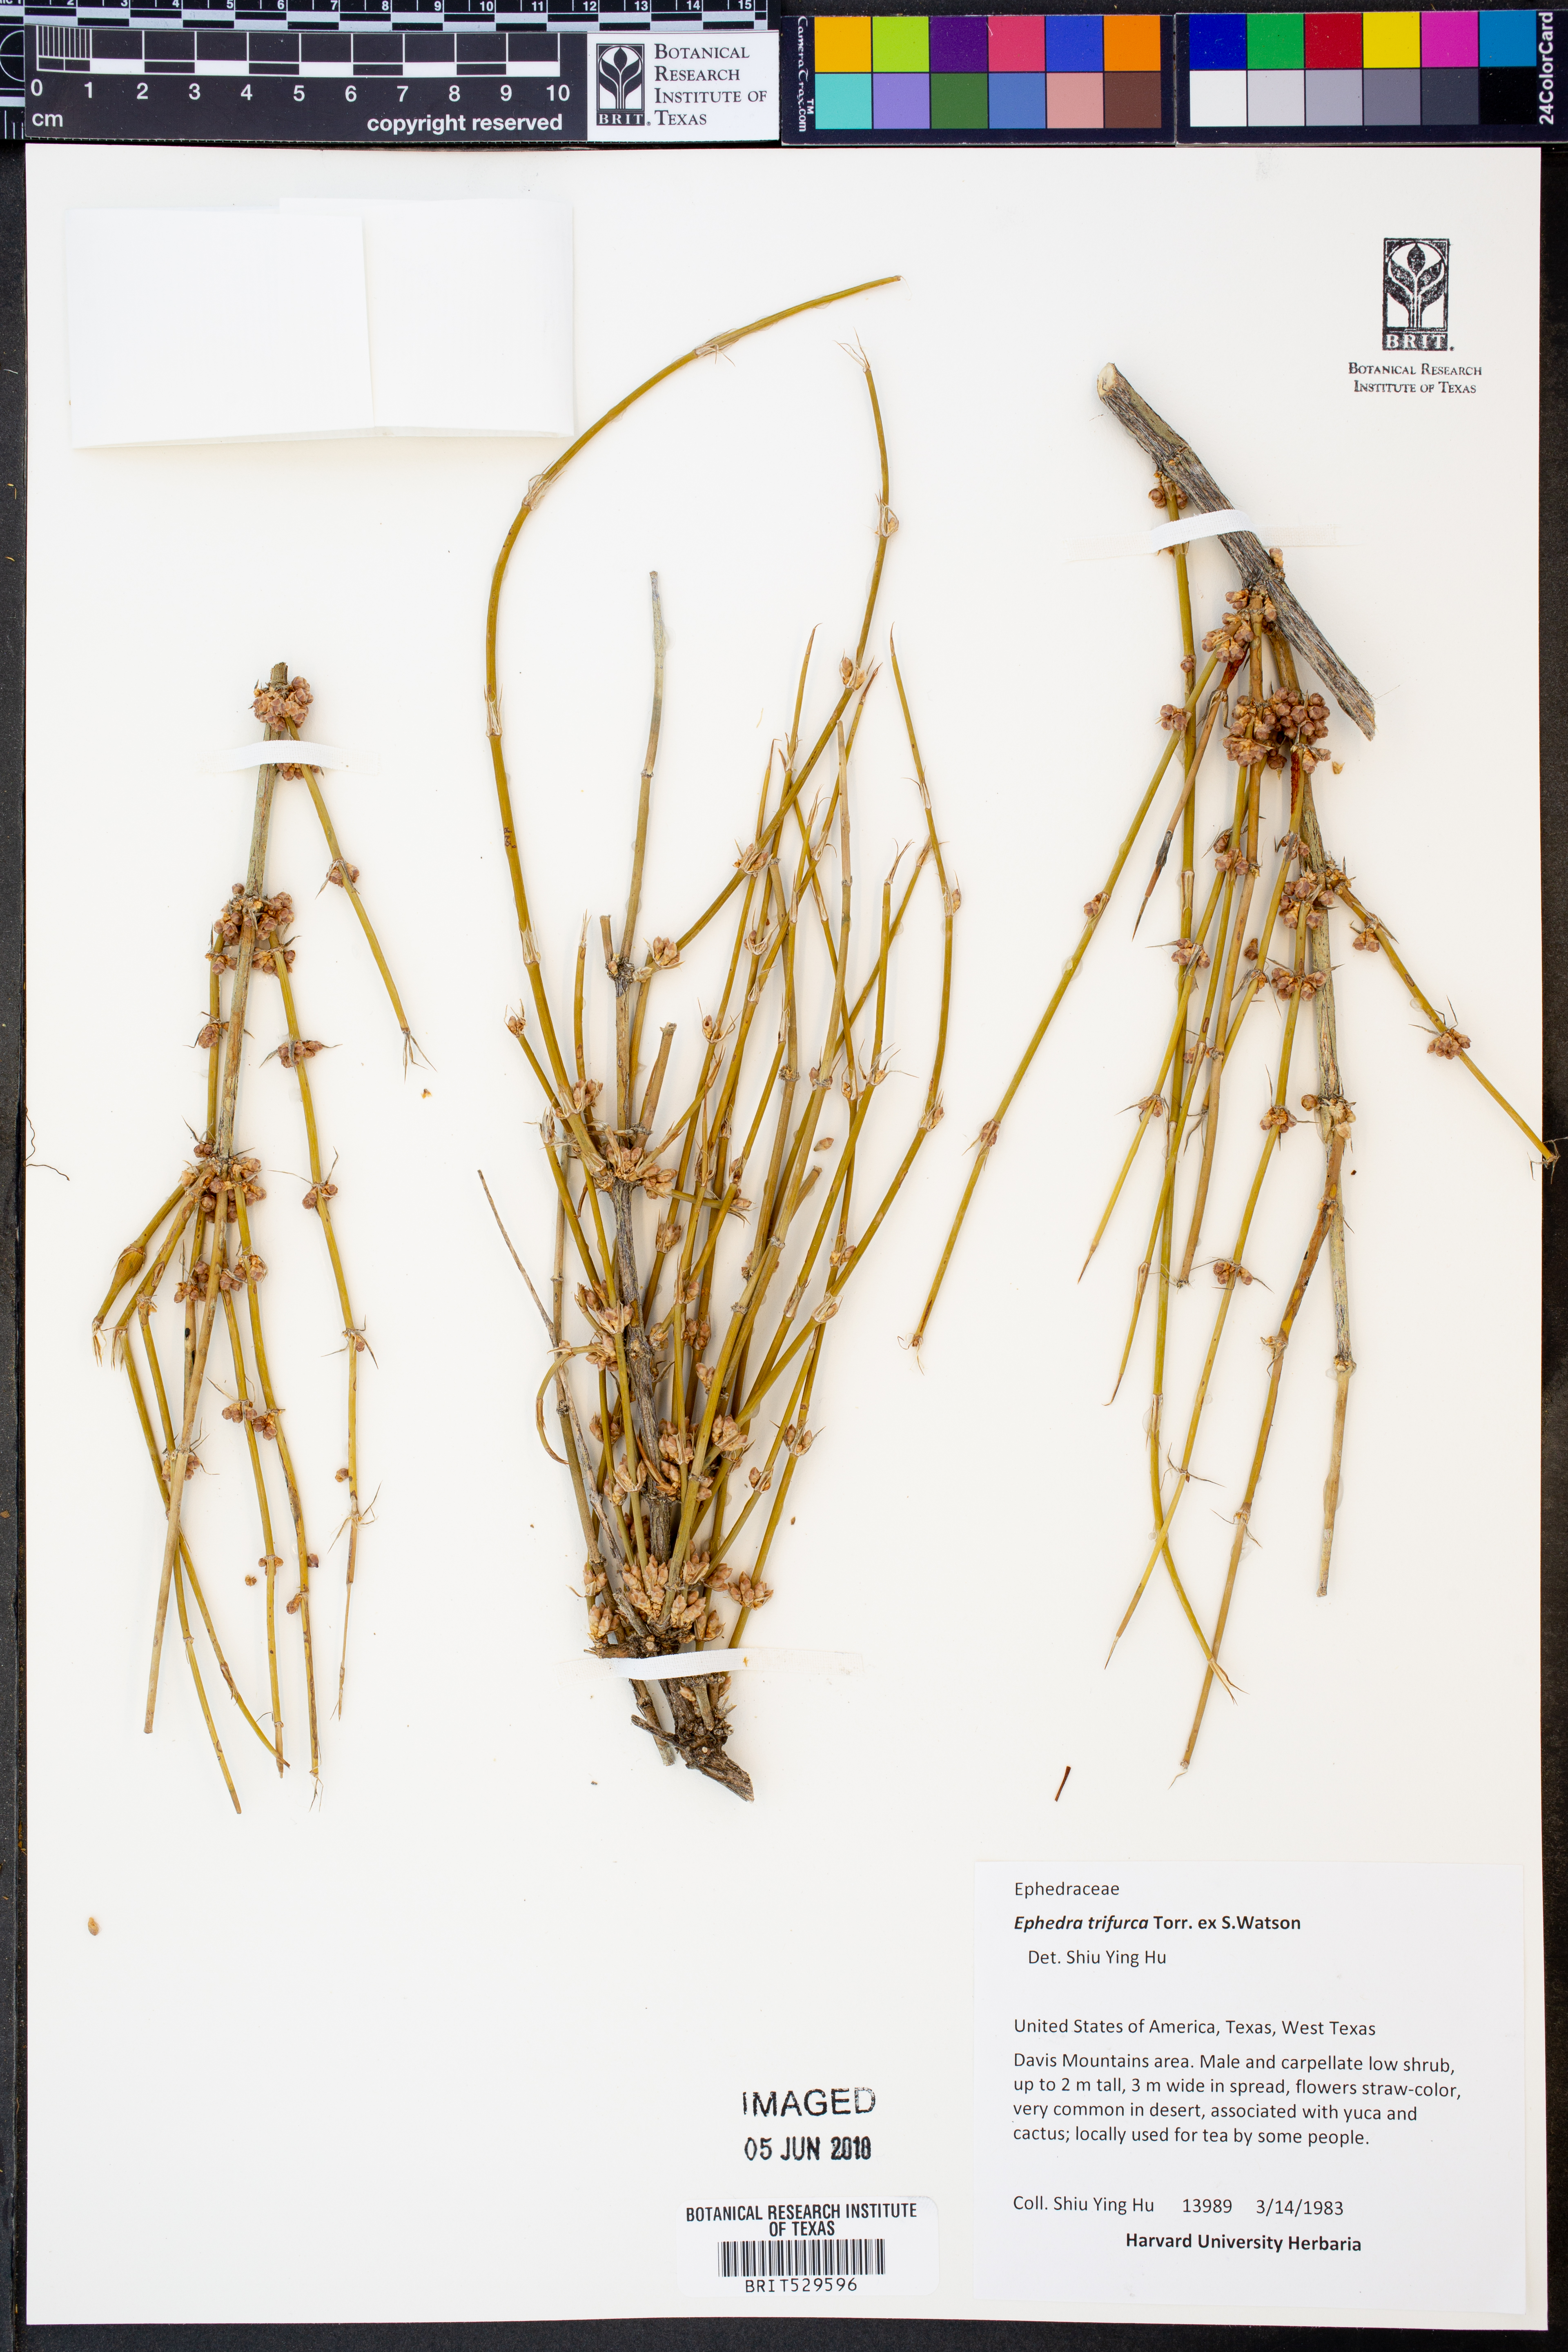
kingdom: Plantae
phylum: Tracheophyta
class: Gnetopsida
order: Ephedrales
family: Ephedraceae
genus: Ephedra
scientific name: Ephedra trifurca
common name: Mexican-tea
